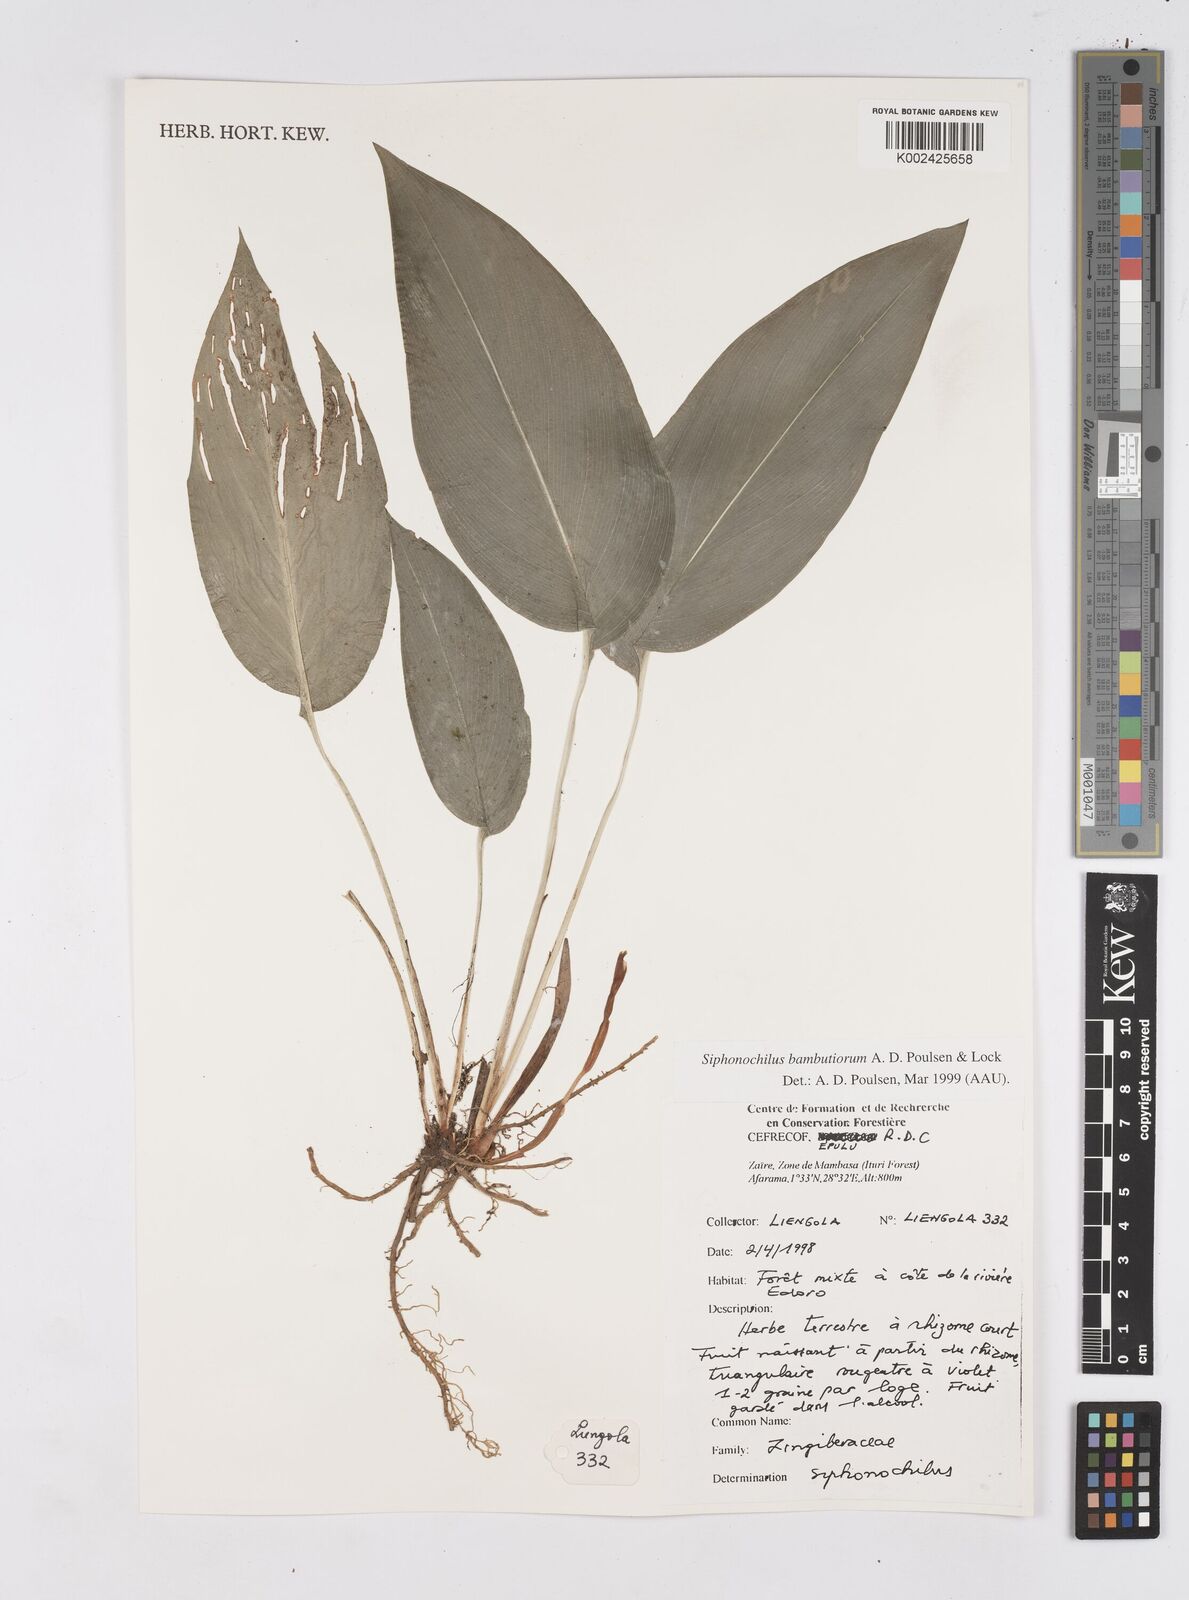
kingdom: Plantae
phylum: Tracheophyta
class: Liliopsida
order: Zingiberales
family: Zingiberaceae
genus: Siphonochilus
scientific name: Siphonochilus bambutiorum
